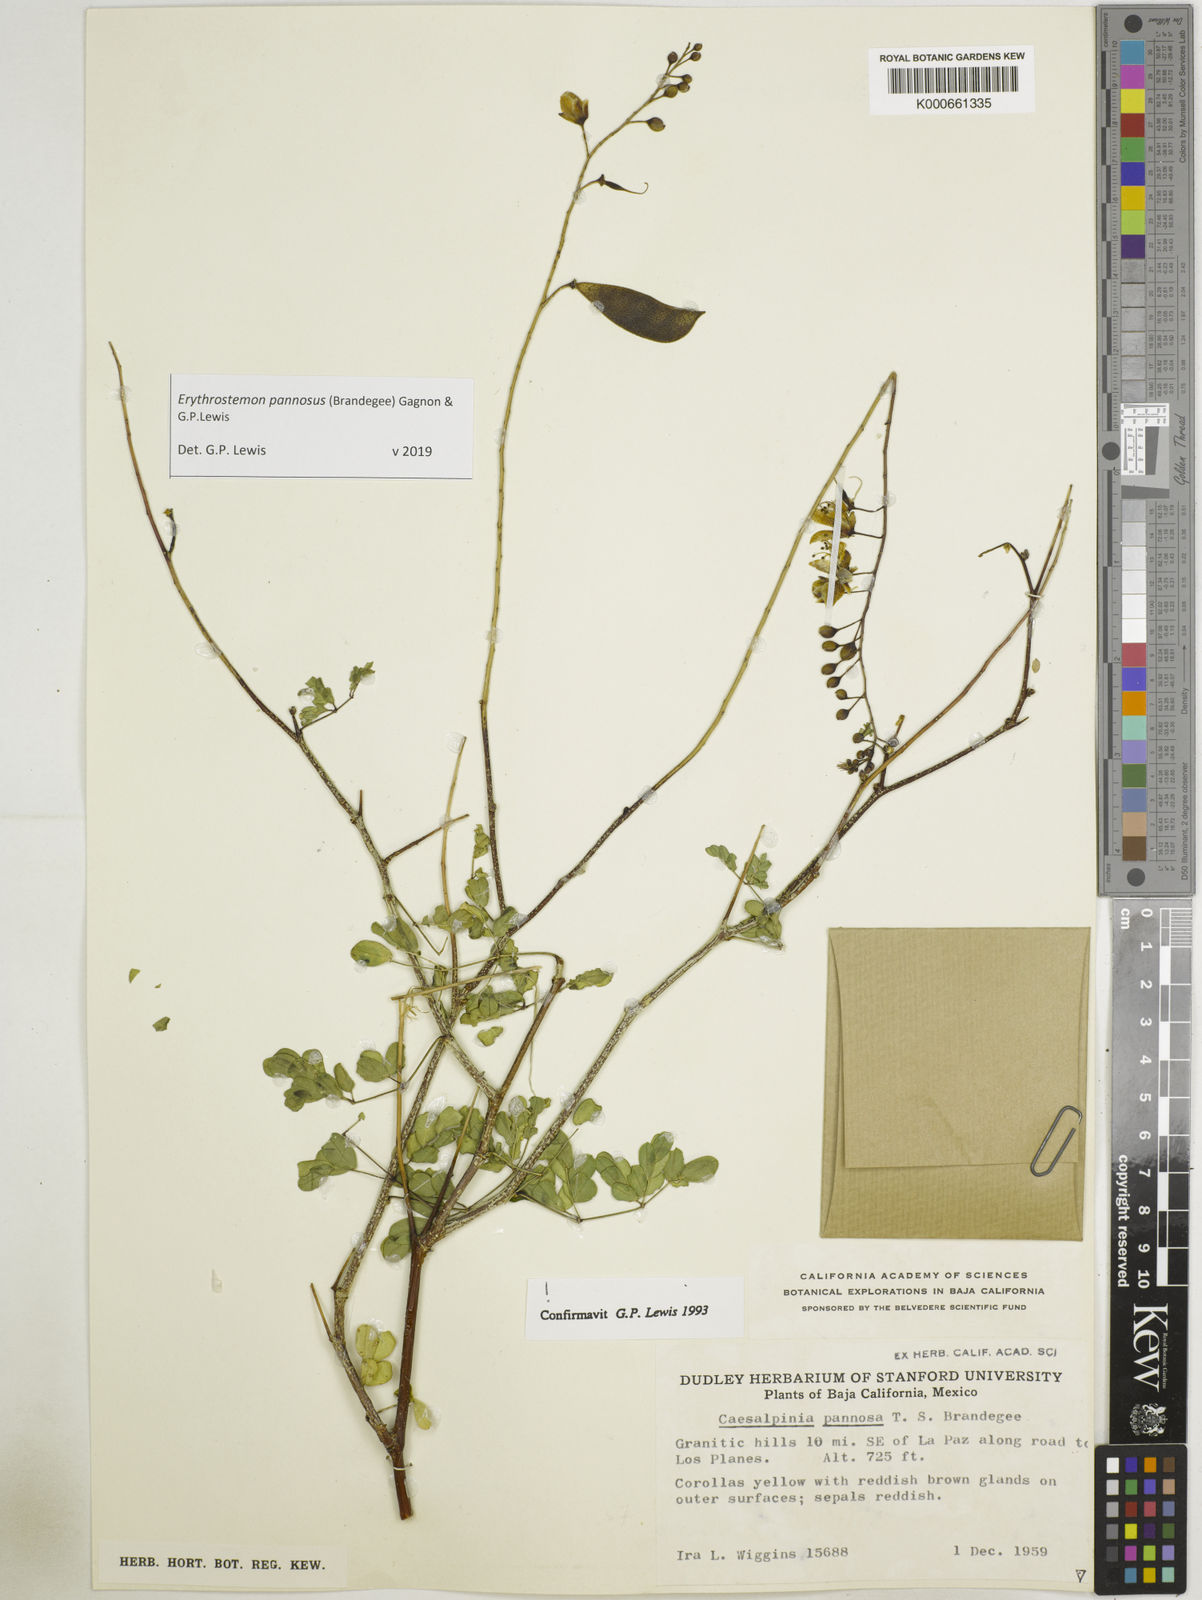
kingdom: Plantae
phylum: Tracheophyta
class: Magnoliopsida
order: Fabales
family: Fabaceae
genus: Erythrostemon
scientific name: Erythrostemon pannosus
